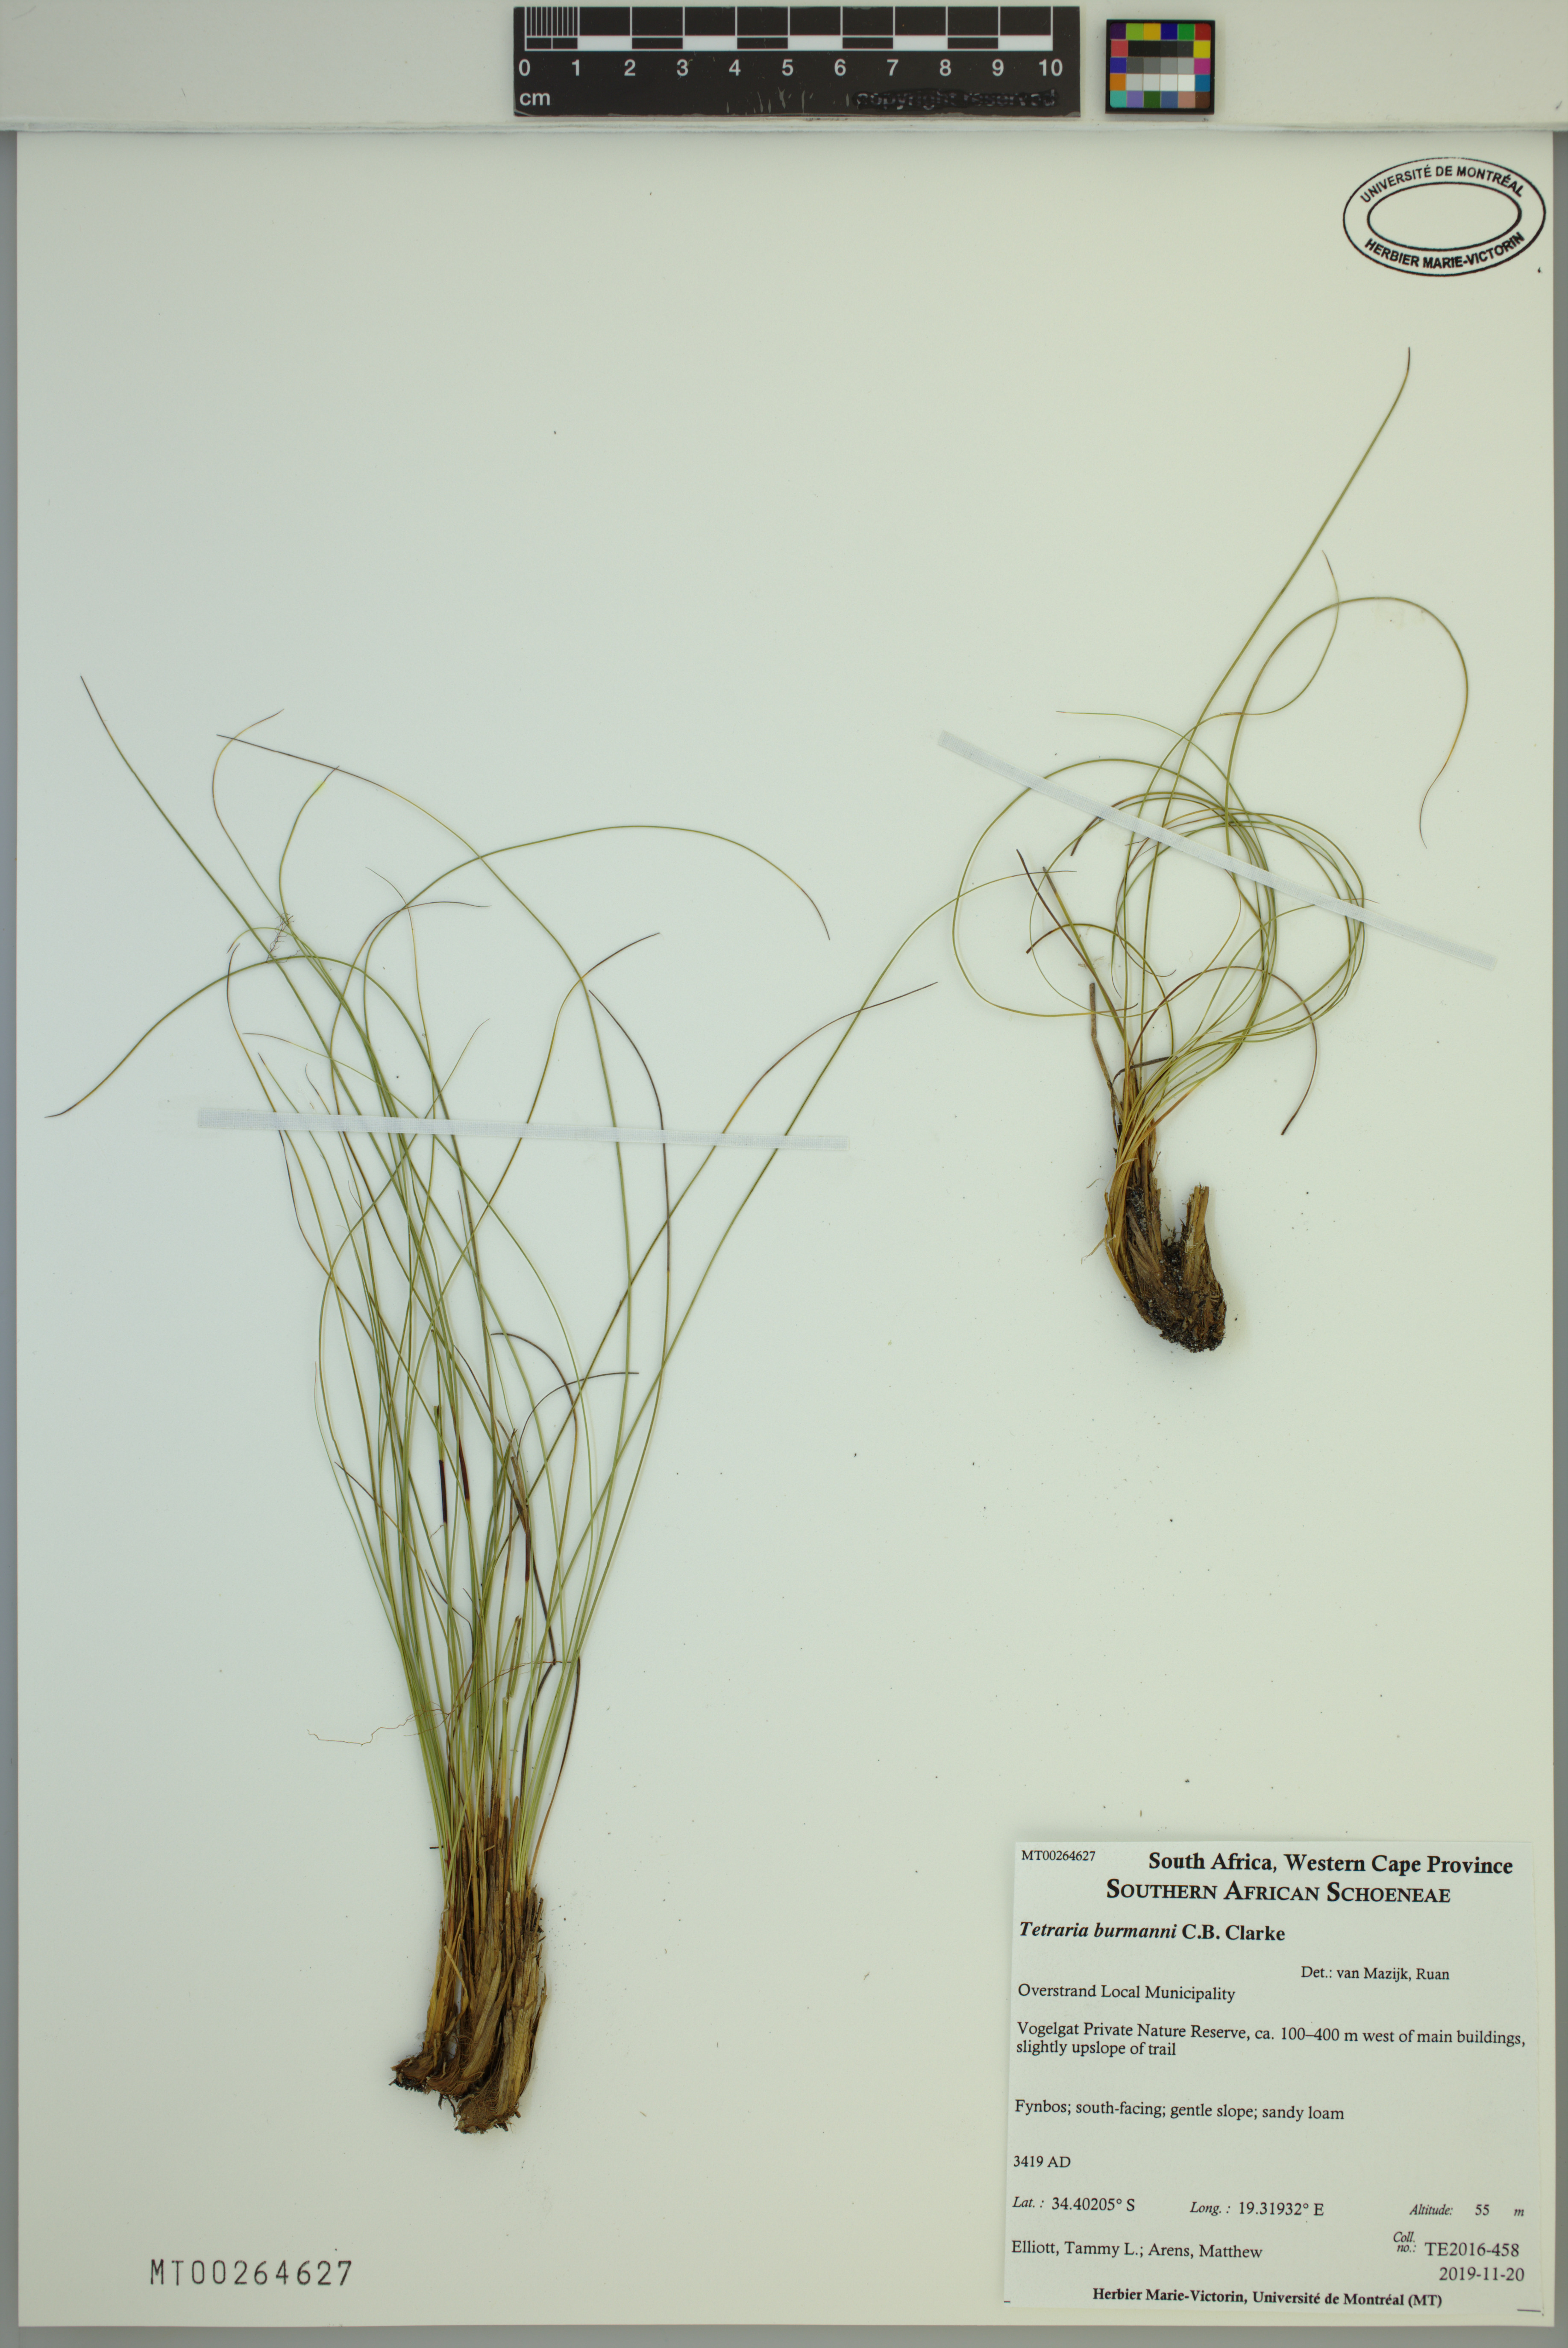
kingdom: Plantae
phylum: Tracheophyta
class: Liliopsida
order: Poales
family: Cyperaceae
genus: Tetraria
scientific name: Tetraria burmanni
